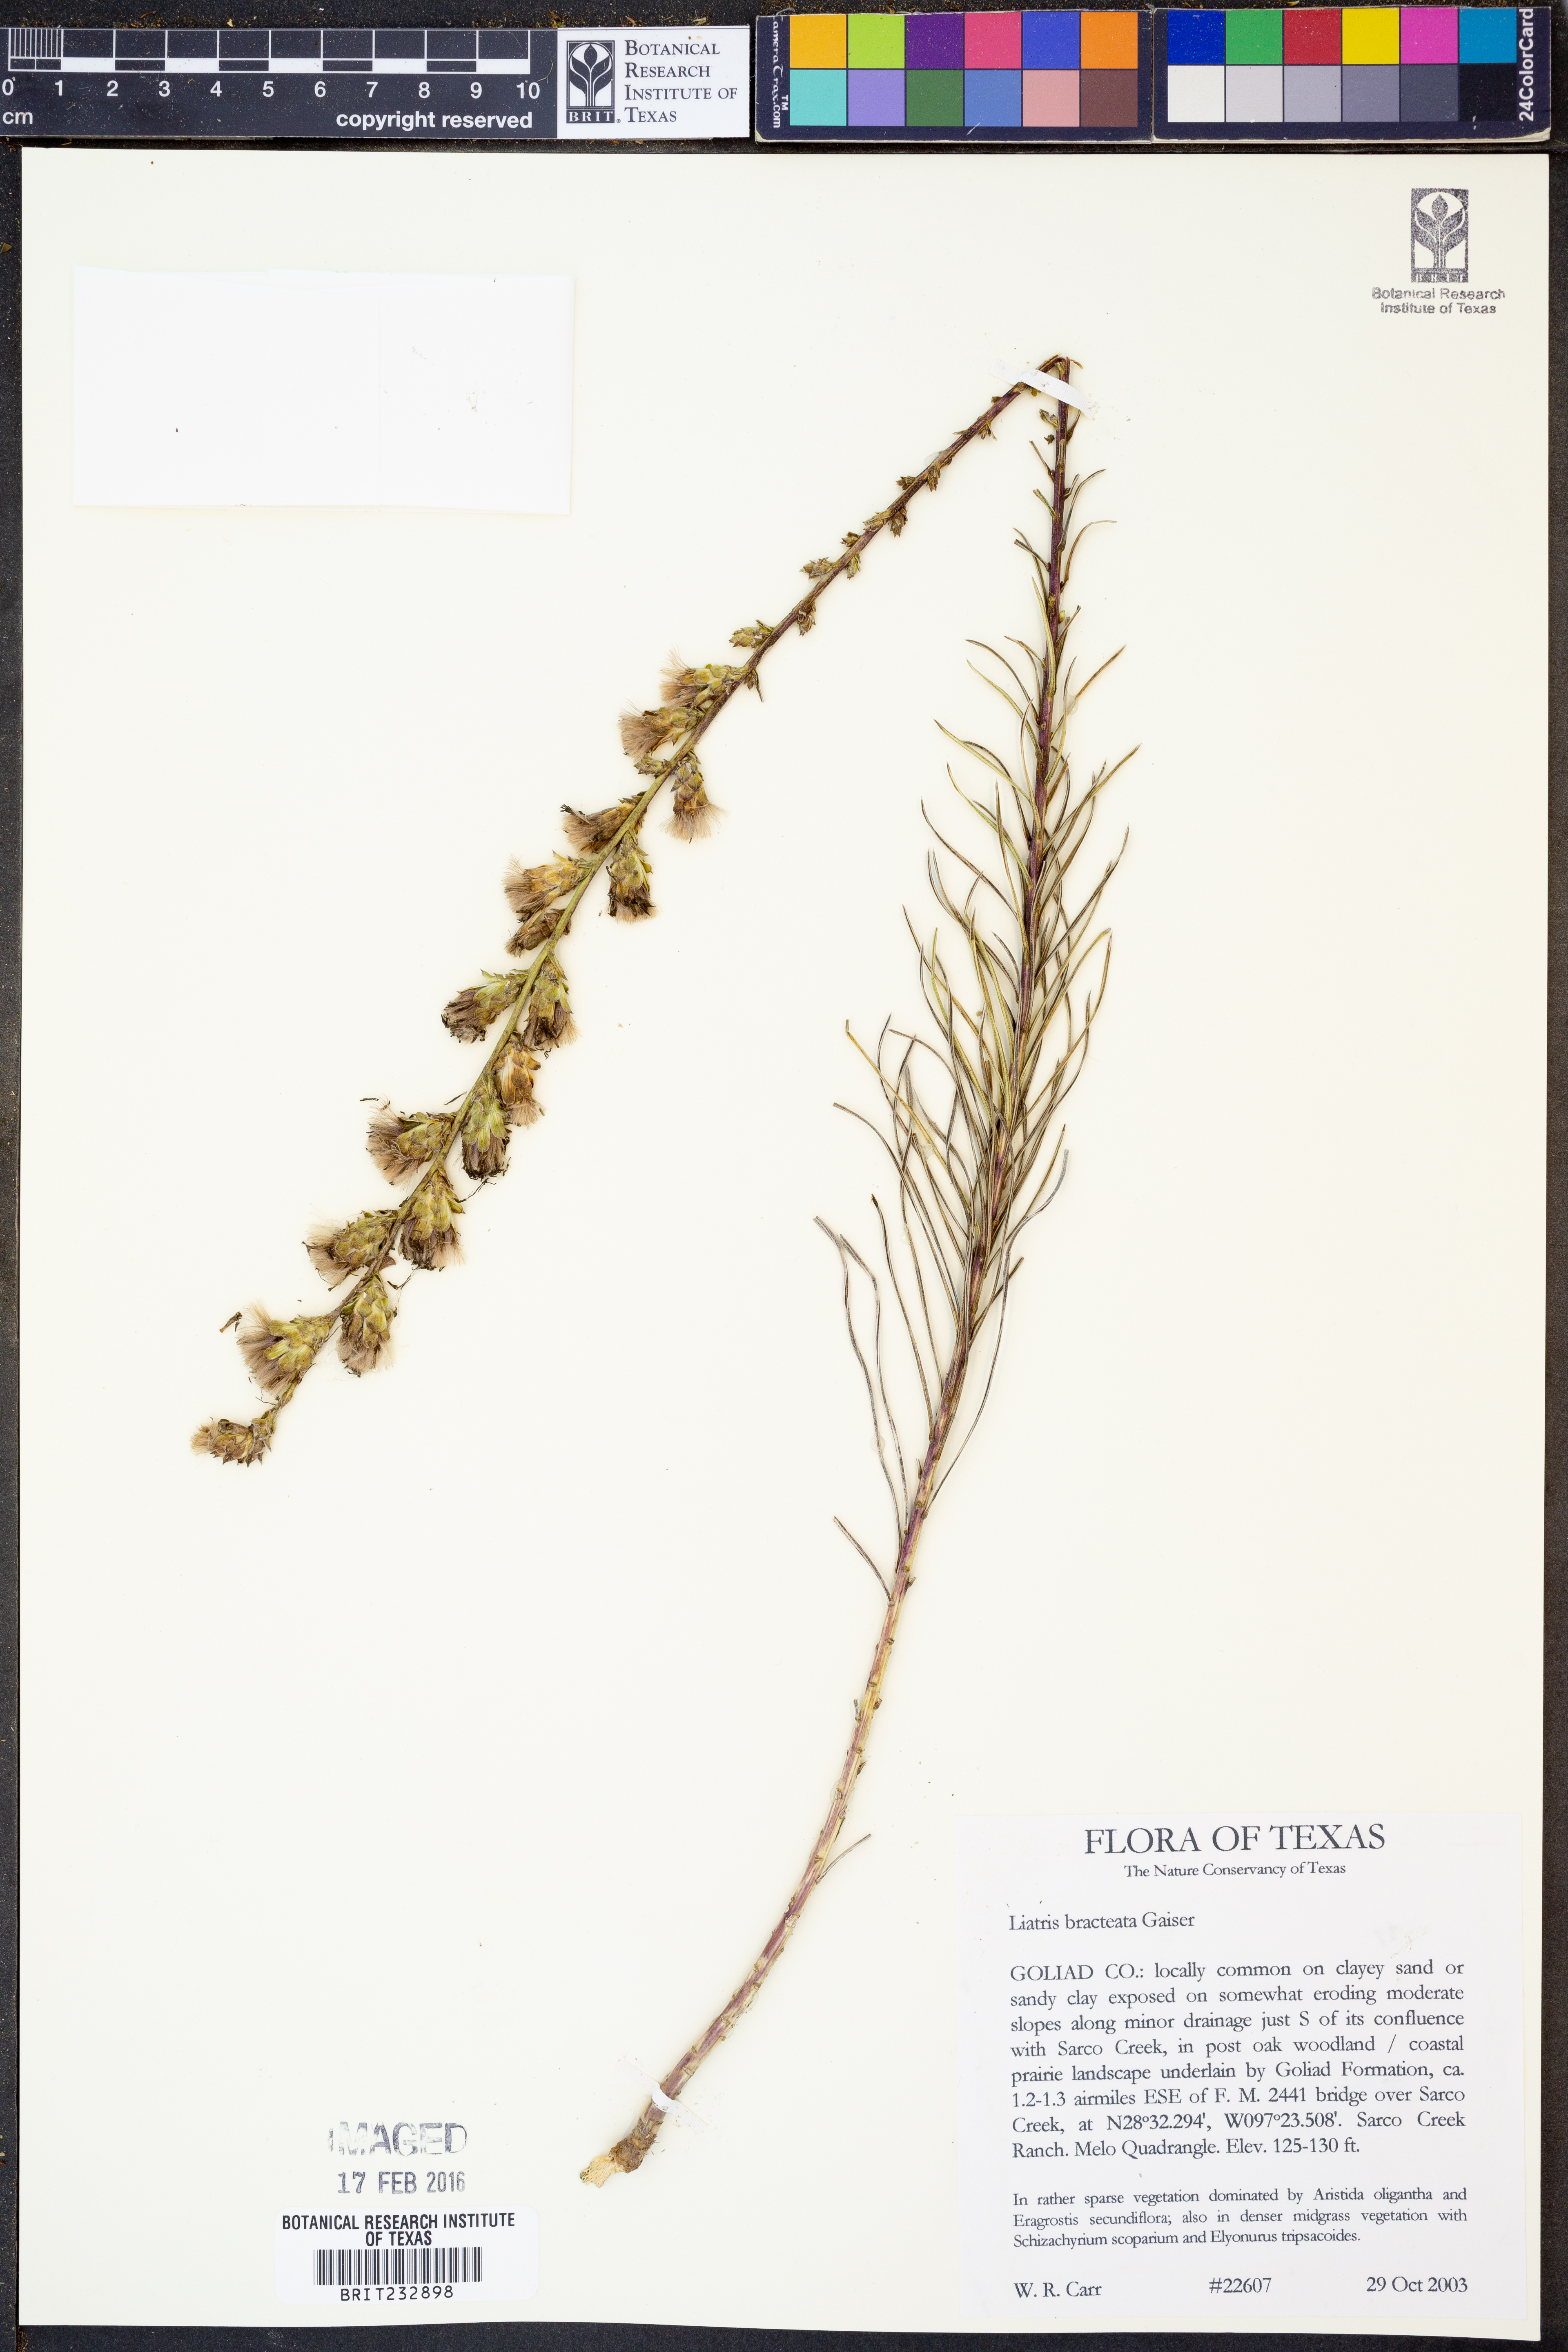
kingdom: Plantae
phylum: Tracheophyta
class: Magnoliopsida
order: Asterales
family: Asteraceae
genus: Liatris
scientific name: Liatris bracteata
